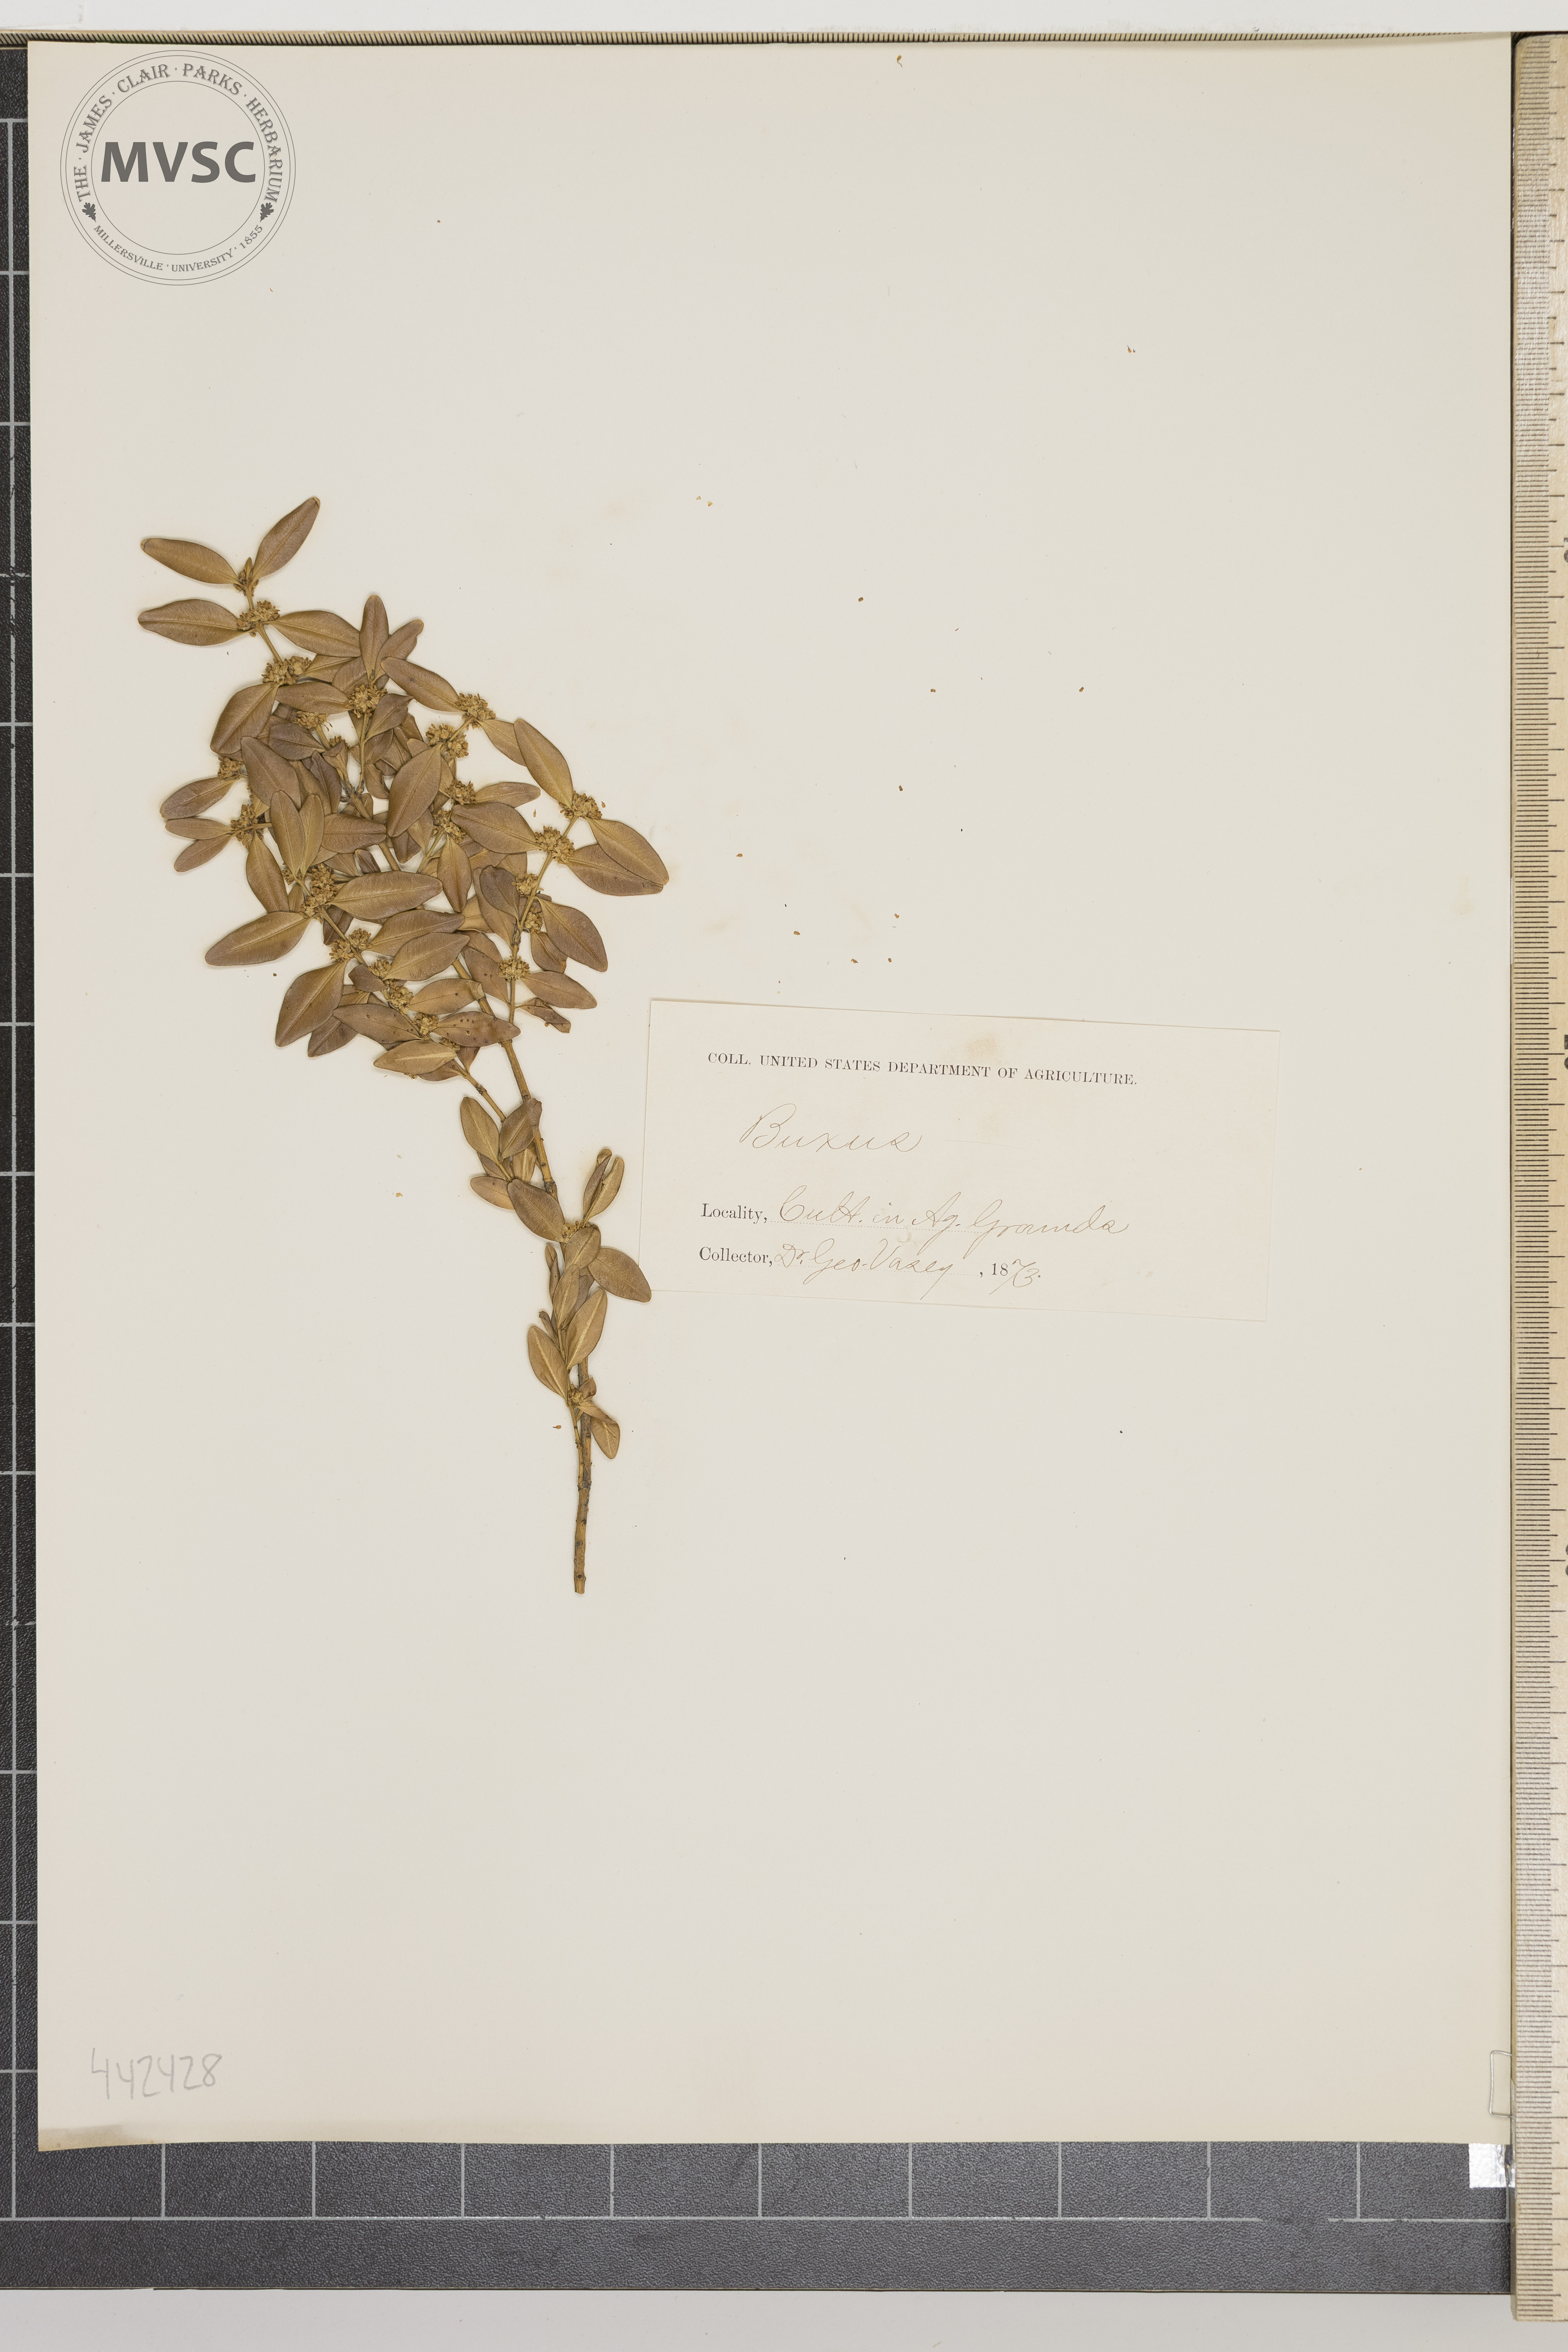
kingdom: Plantae
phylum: Tracheophyta
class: Magnoliopsida
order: Buxales
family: Buxaceae
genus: Buxus
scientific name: Buxus
